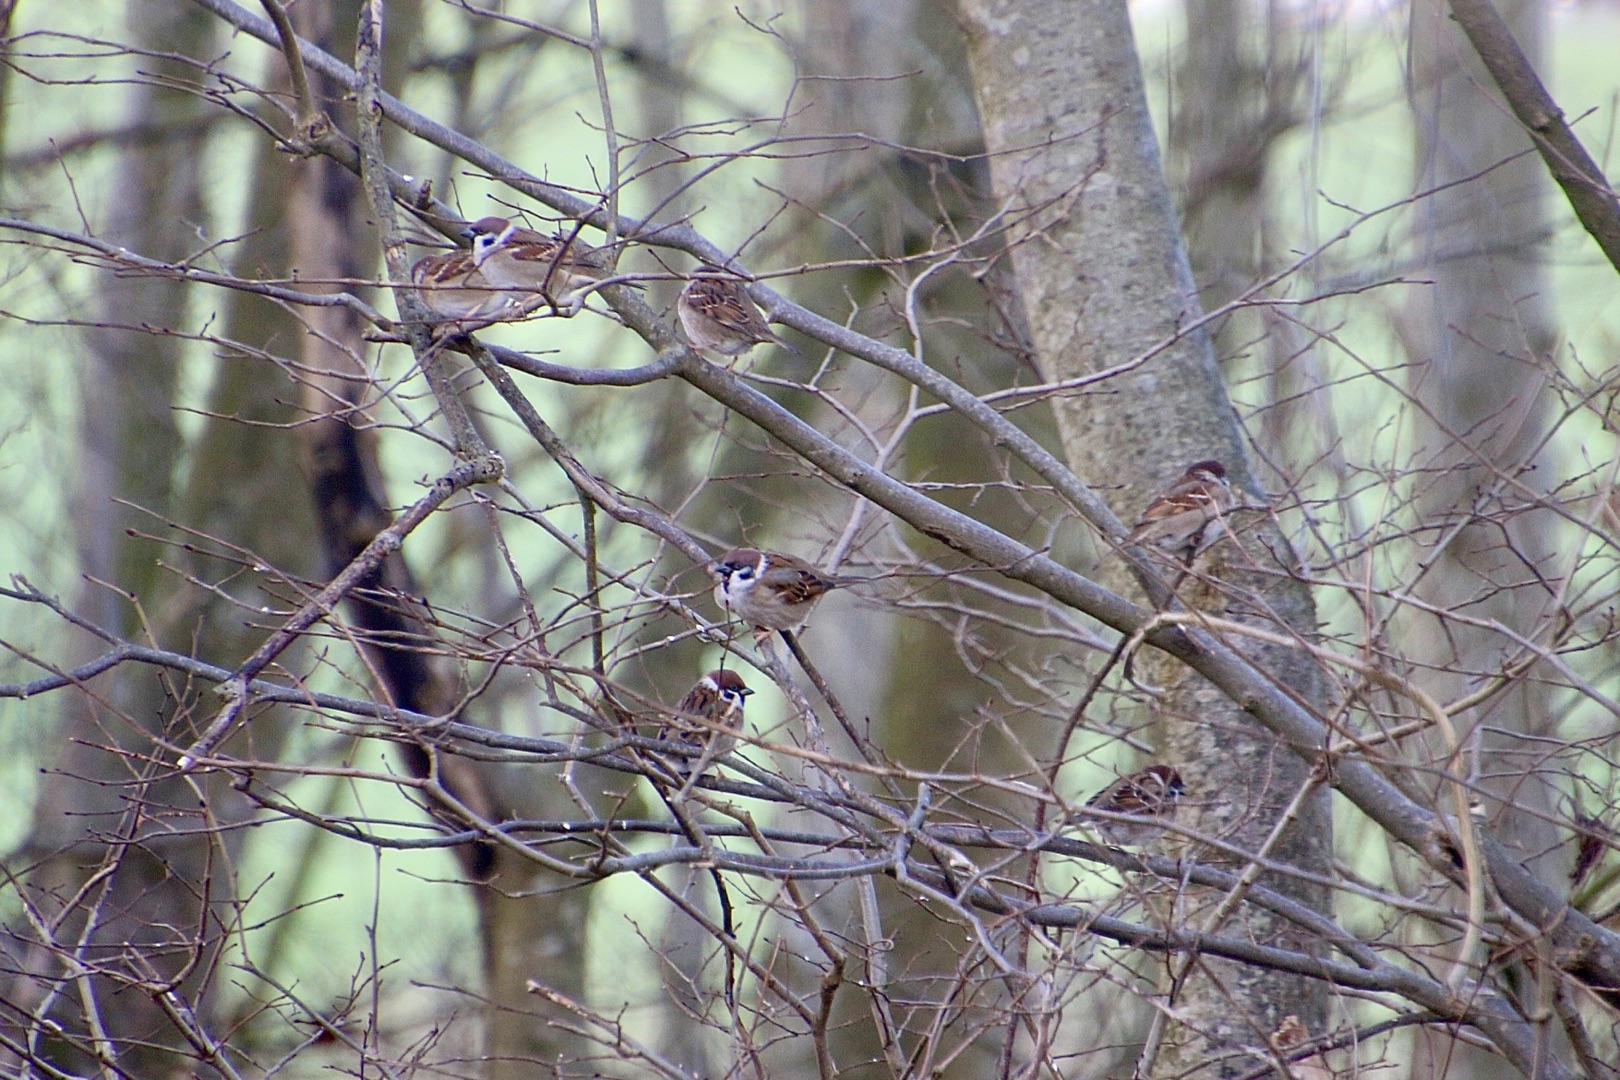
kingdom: Animalia
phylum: Chordata
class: Aves
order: Passeriformes
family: Passeridae
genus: Passer
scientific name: Passer montanus
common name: Skovspurv
